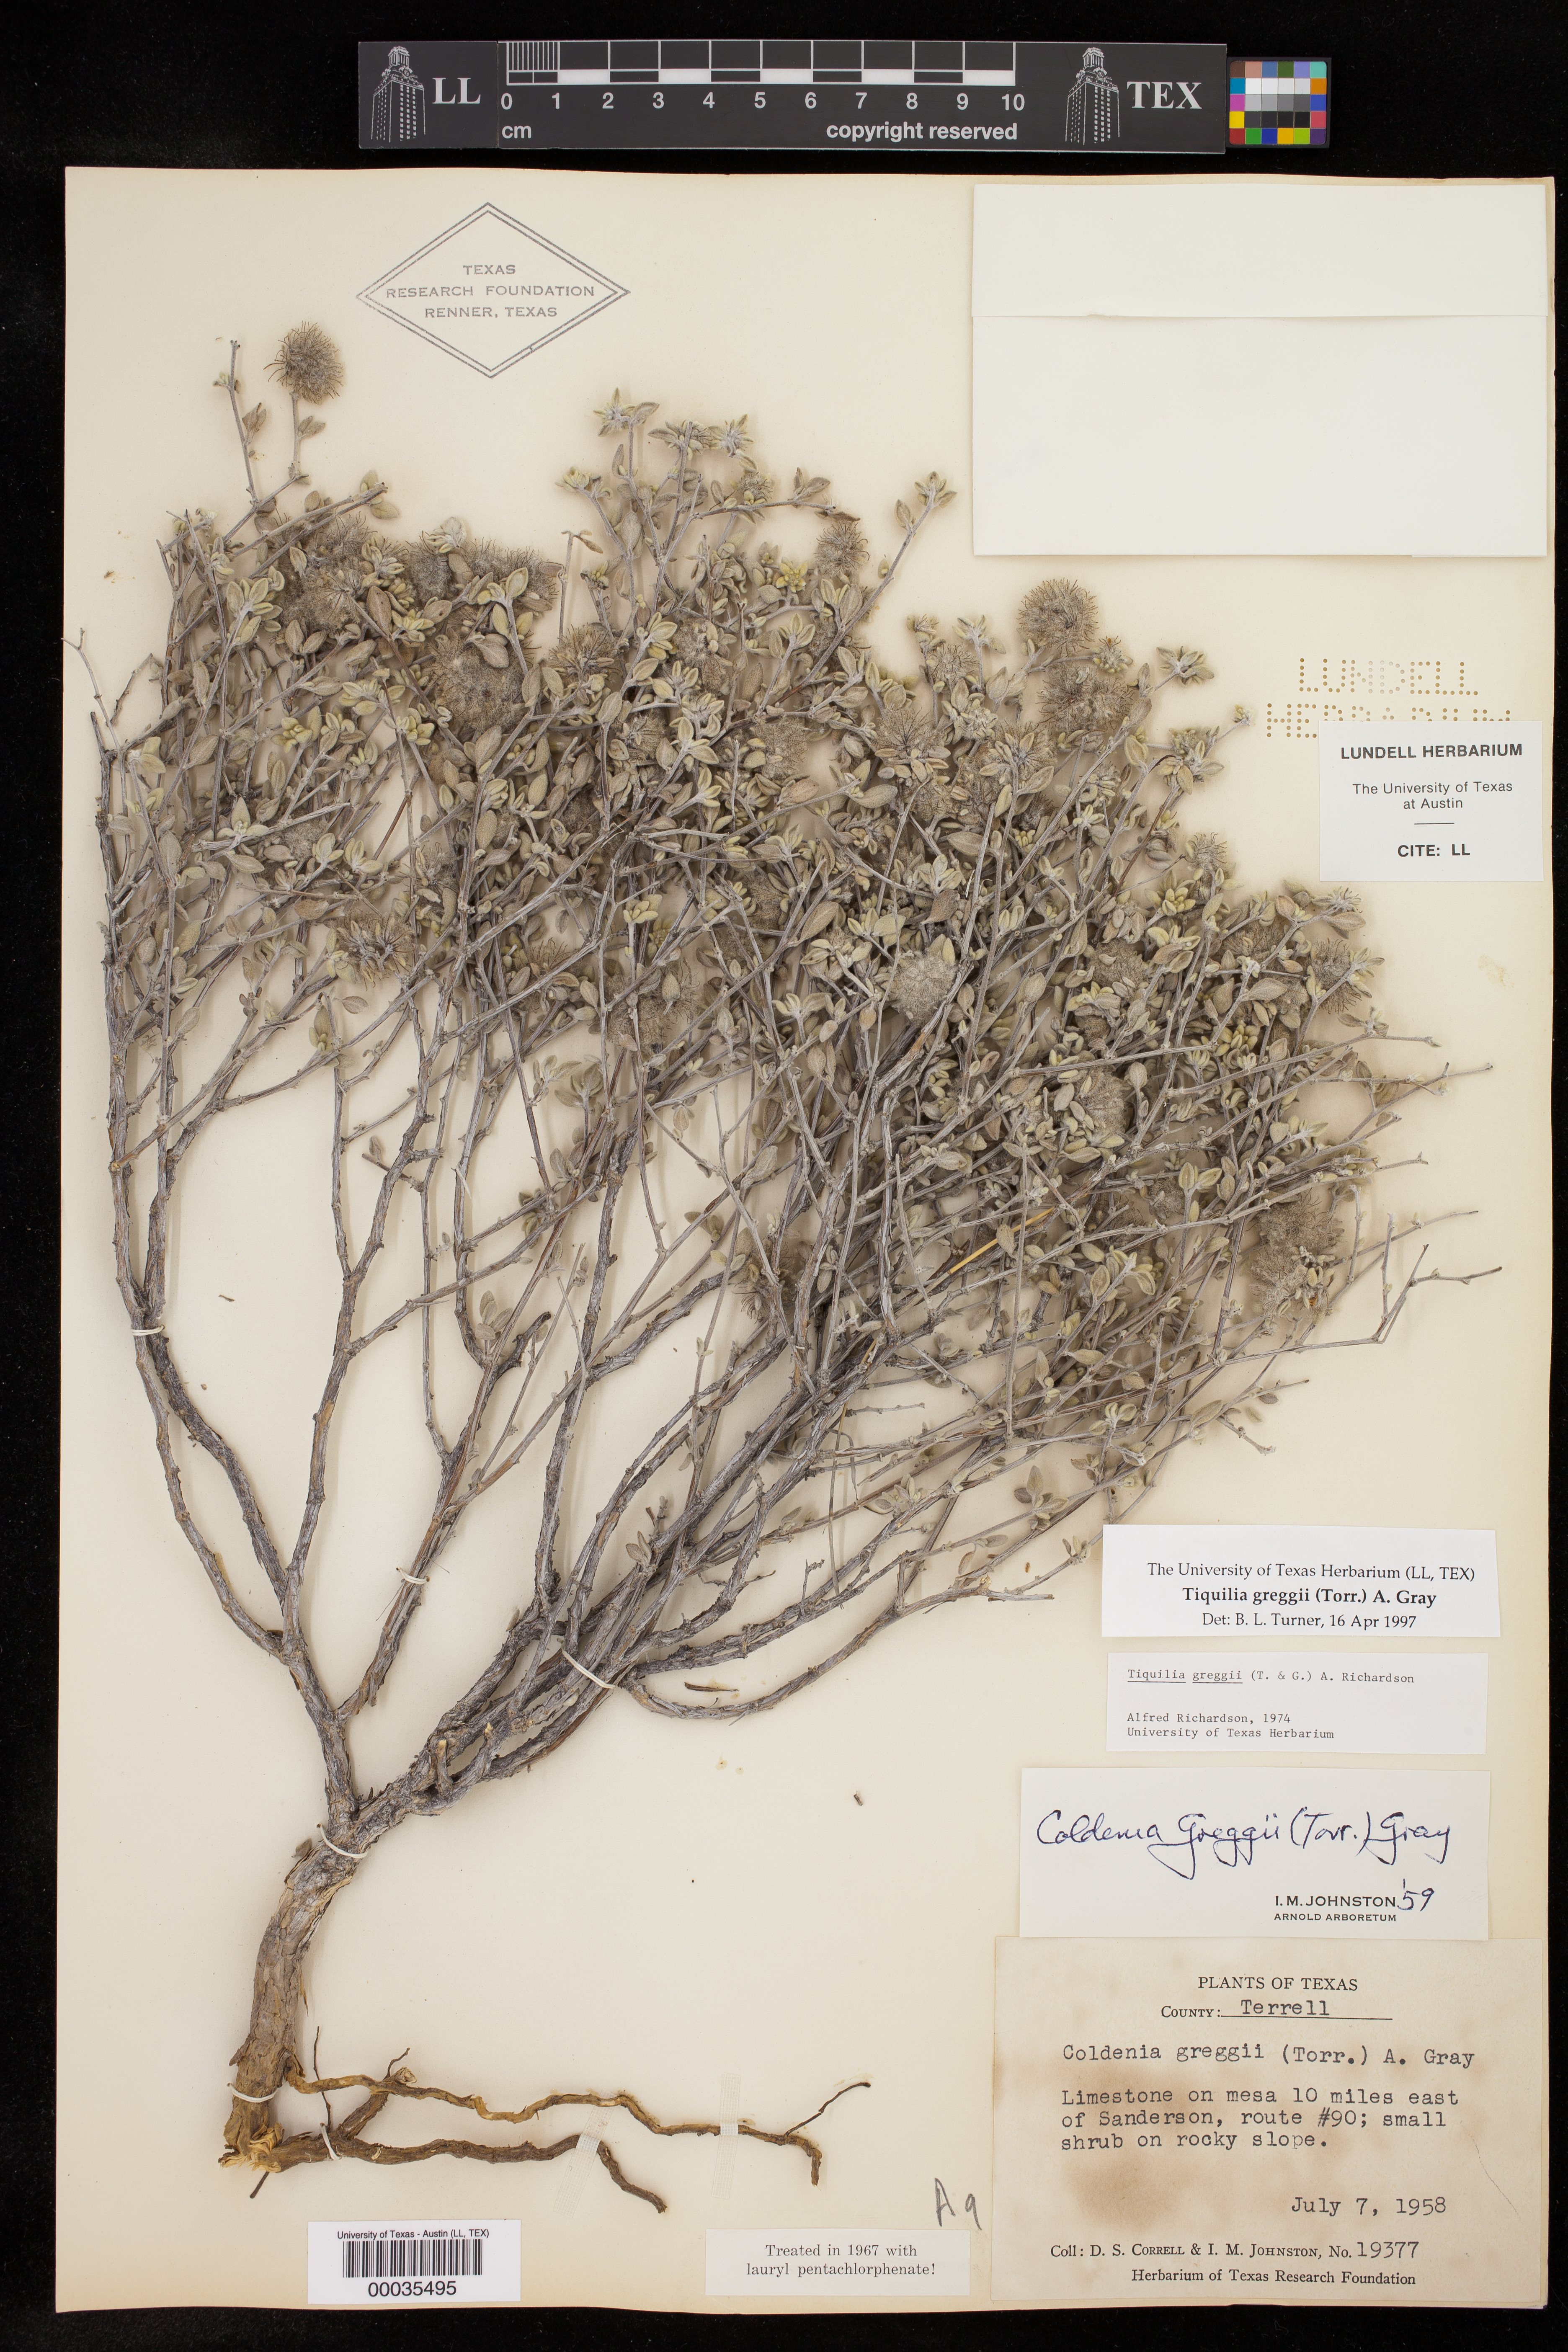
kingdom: Plantae
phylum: Tracheophyta
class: Magnoliopsida
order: Boraginales
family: Ehretiaceae
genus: Tiquilia
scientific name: Tiquilia greggii
